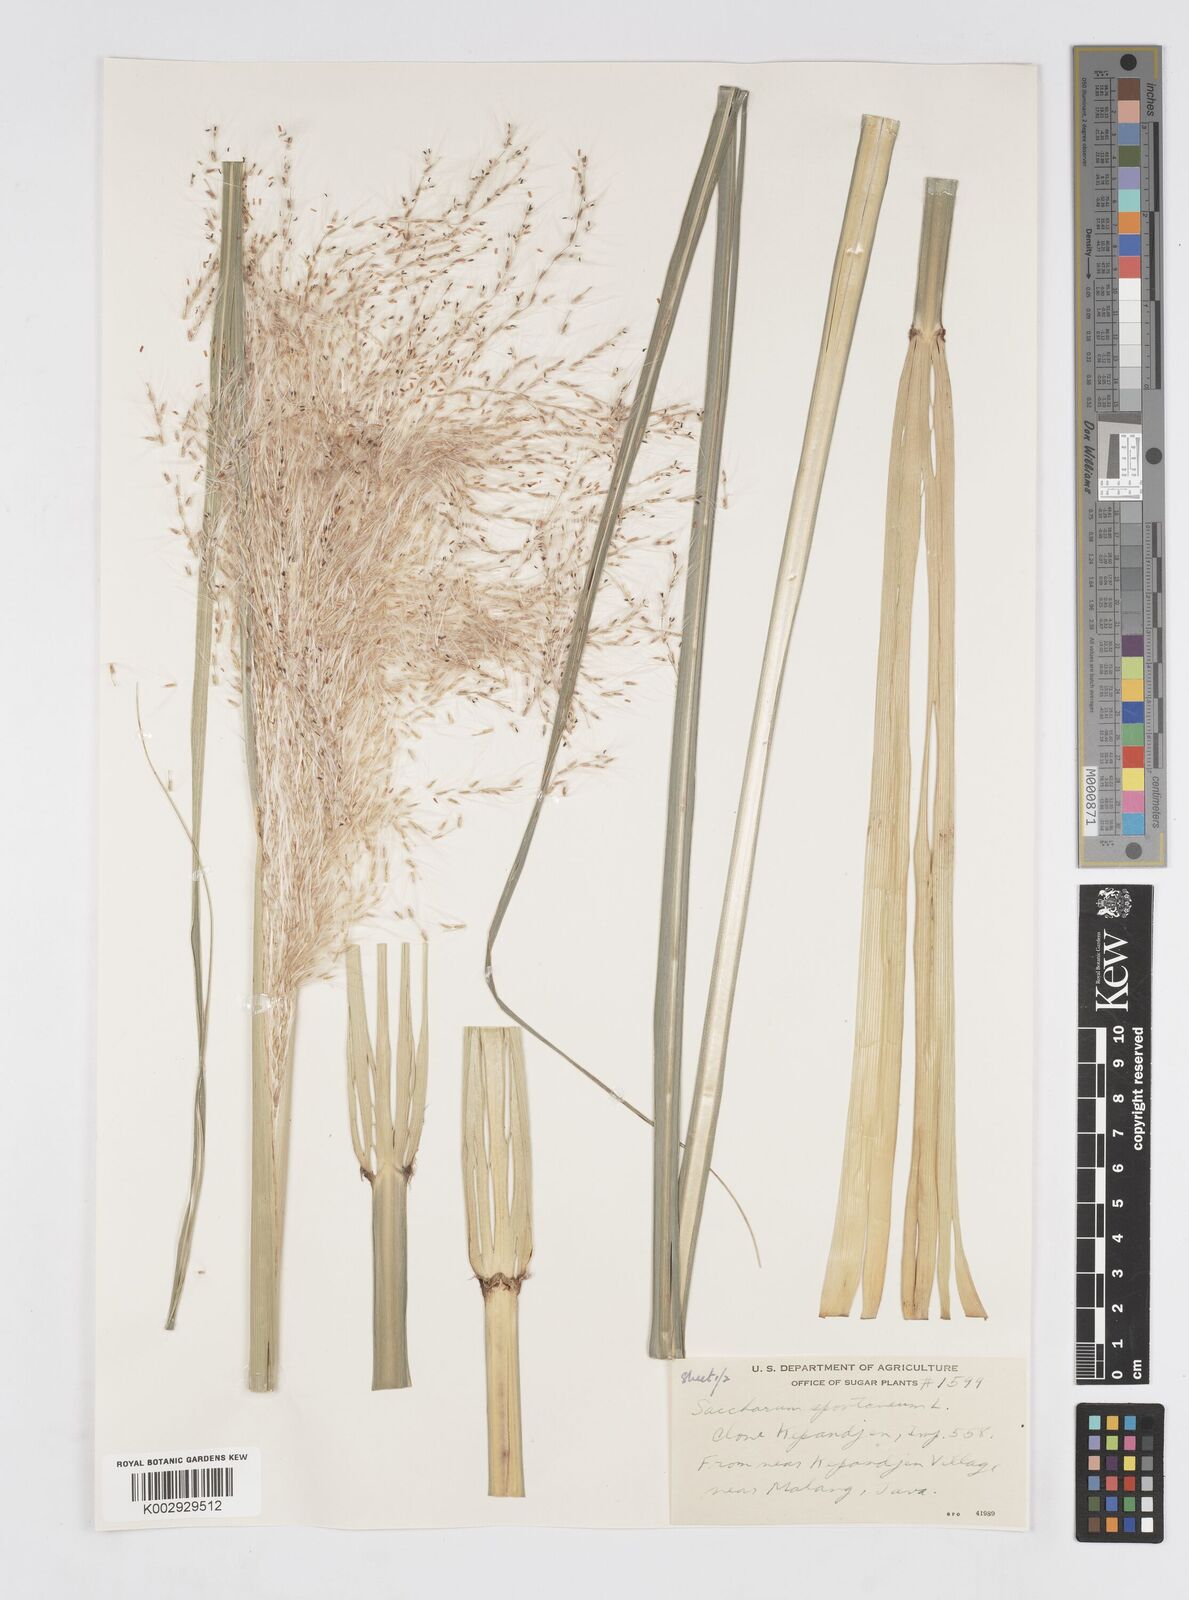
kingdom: Plantae
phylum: Tracheophyta
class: Liliopsida
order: Poales
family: Poaceae
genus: Saccharum
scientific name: Saccharum spontaneum
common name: Wild sugarcane
